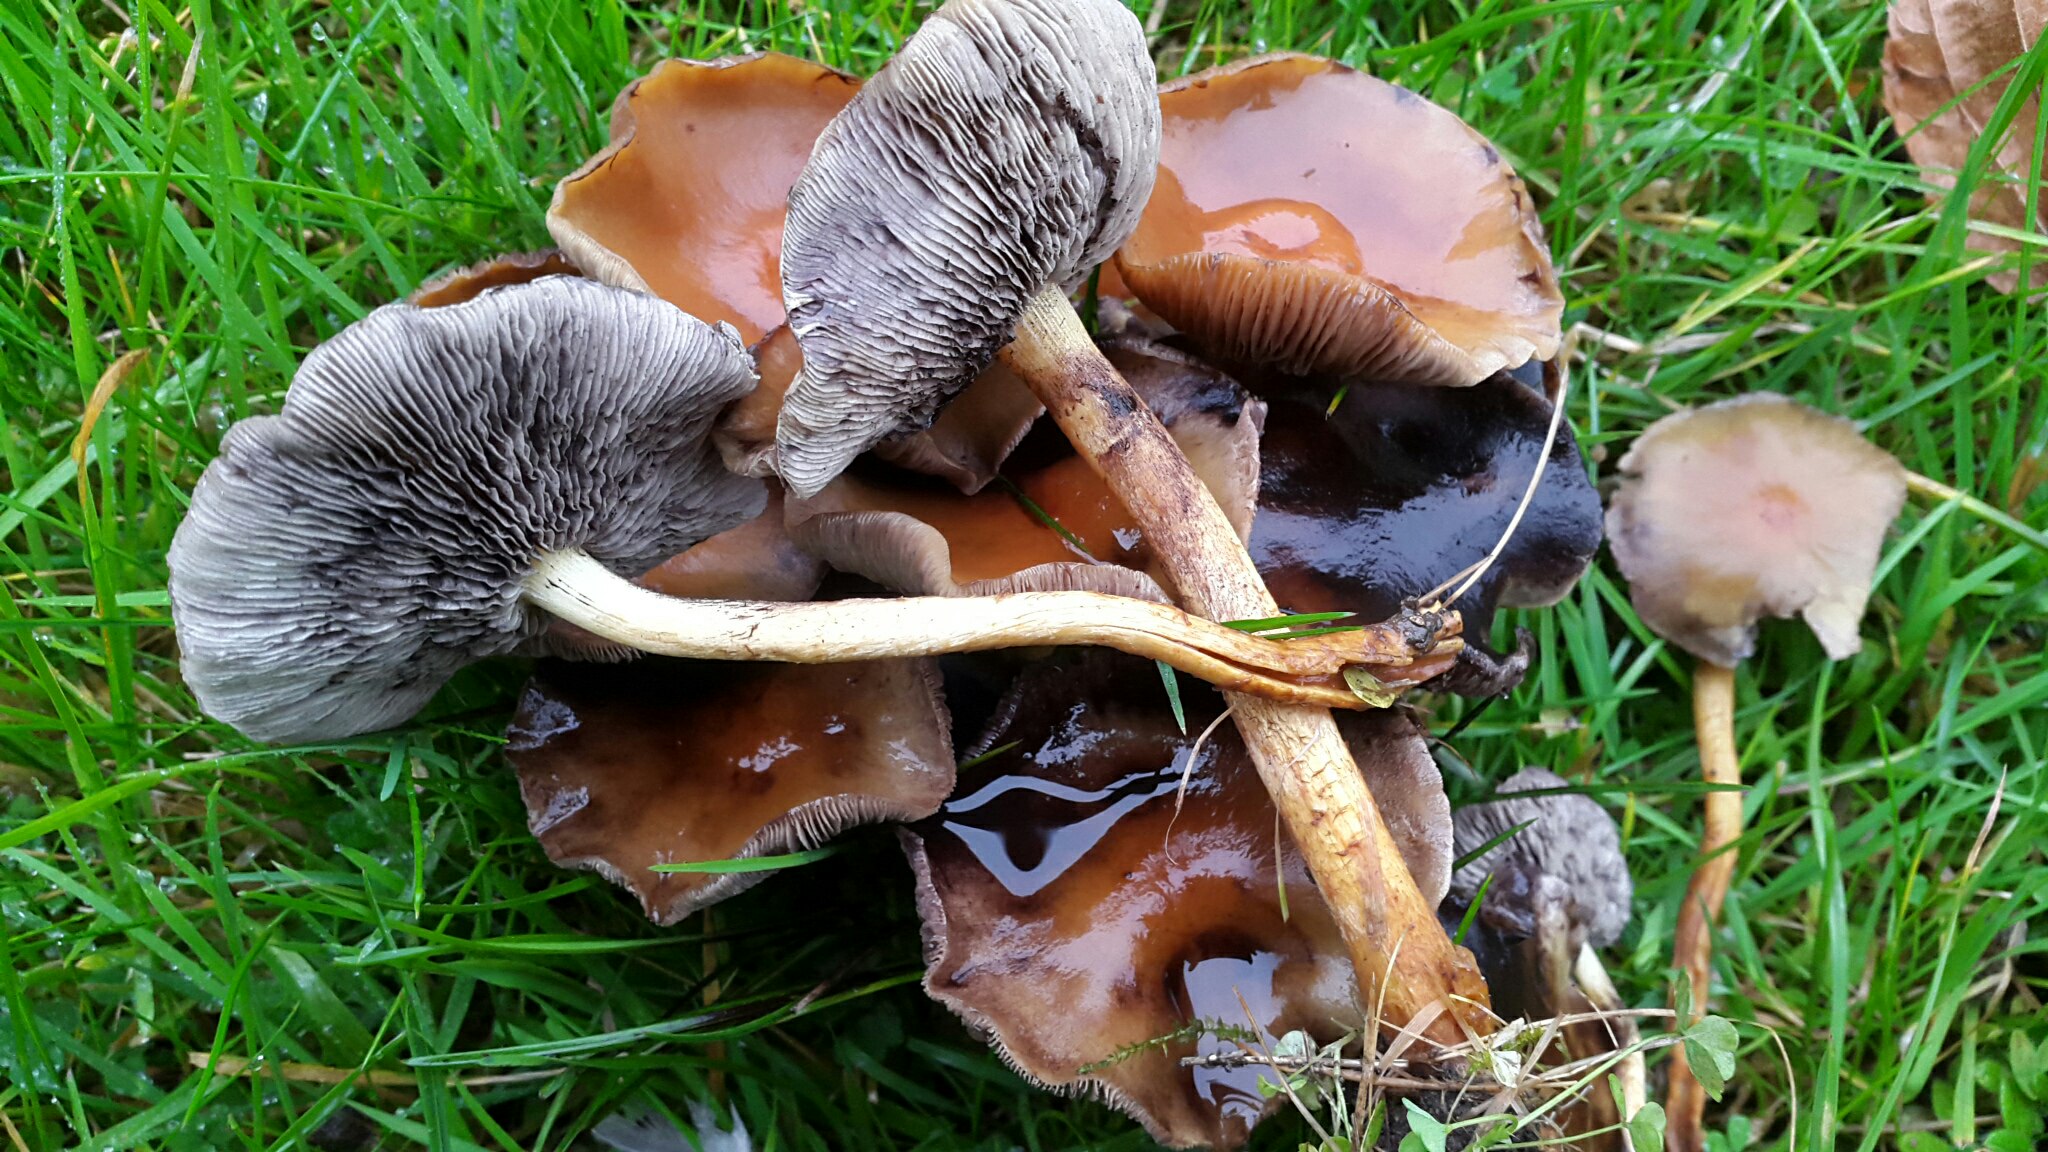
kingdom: Fungi
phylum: Basidiomycota
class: Agaricomycetes
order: Agaricales
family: Strophariaceae
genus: Hypholoma
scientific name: Hypholoma
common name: svovlhat
